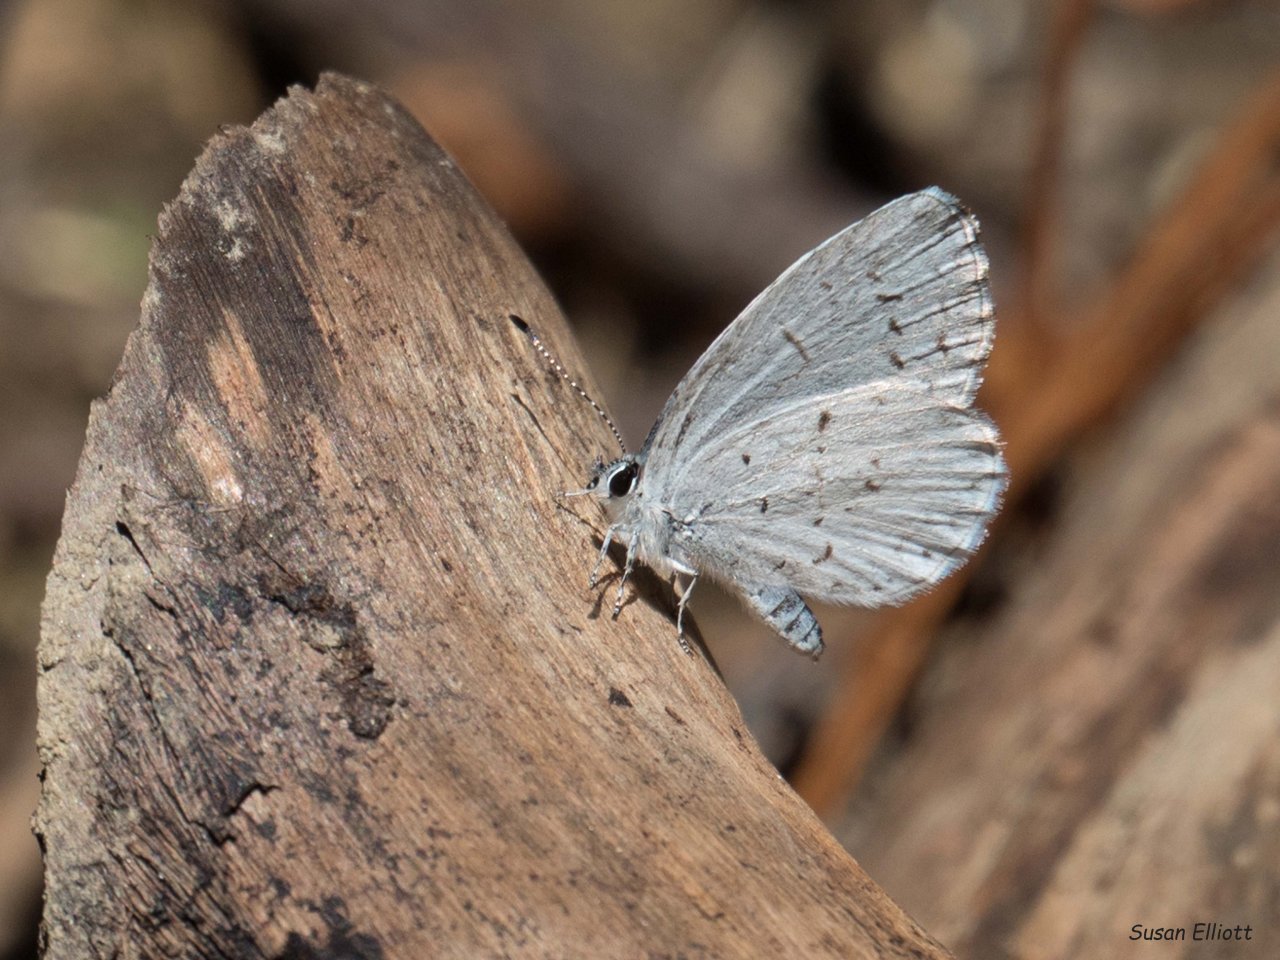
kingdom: Animalia
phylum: Arthropoda
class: Insecta
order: Lepidoptera
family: Lycaenidae
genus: Celastrina
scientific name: Celastrina
